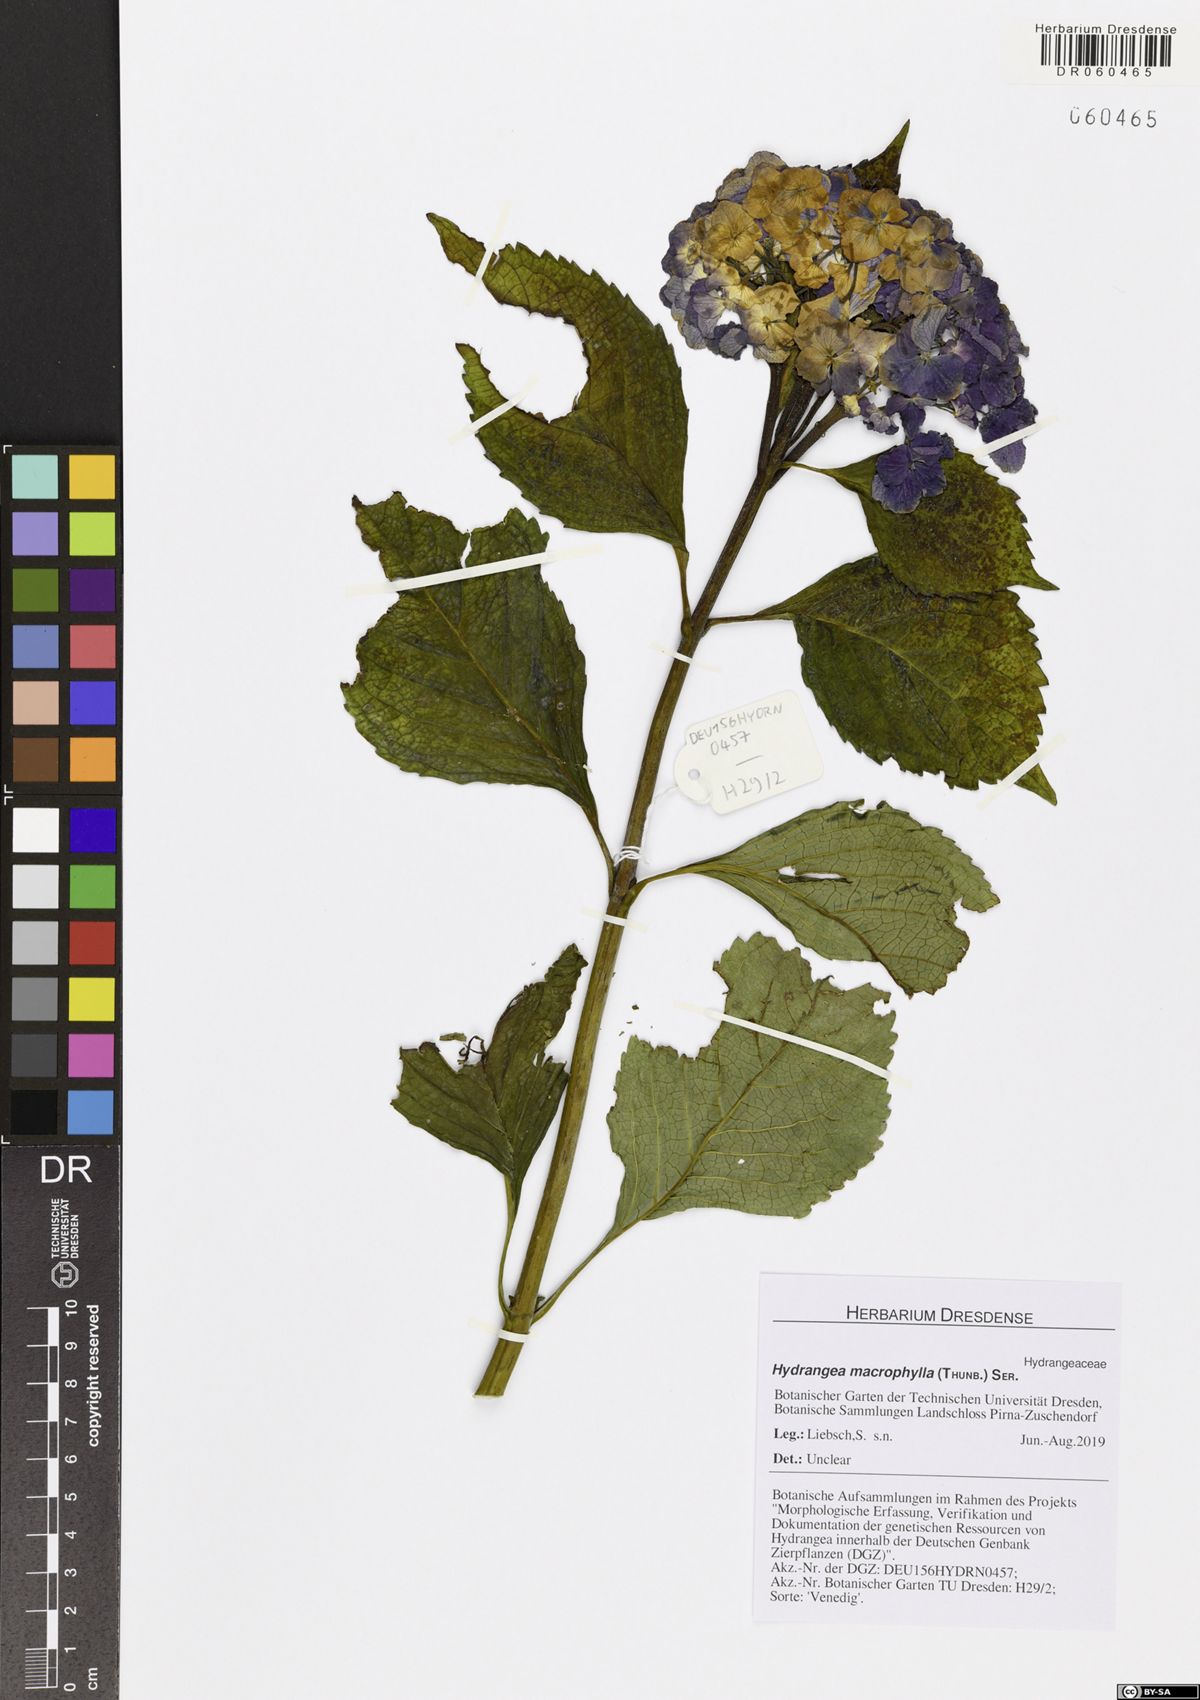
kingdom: Plantae
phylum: Tracheophyta
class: Magnoliopsida
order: Cornales
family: Hydrangeaceae
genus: Hydrangea
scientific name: Hydrangea macrophylla
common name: Hydrangea
